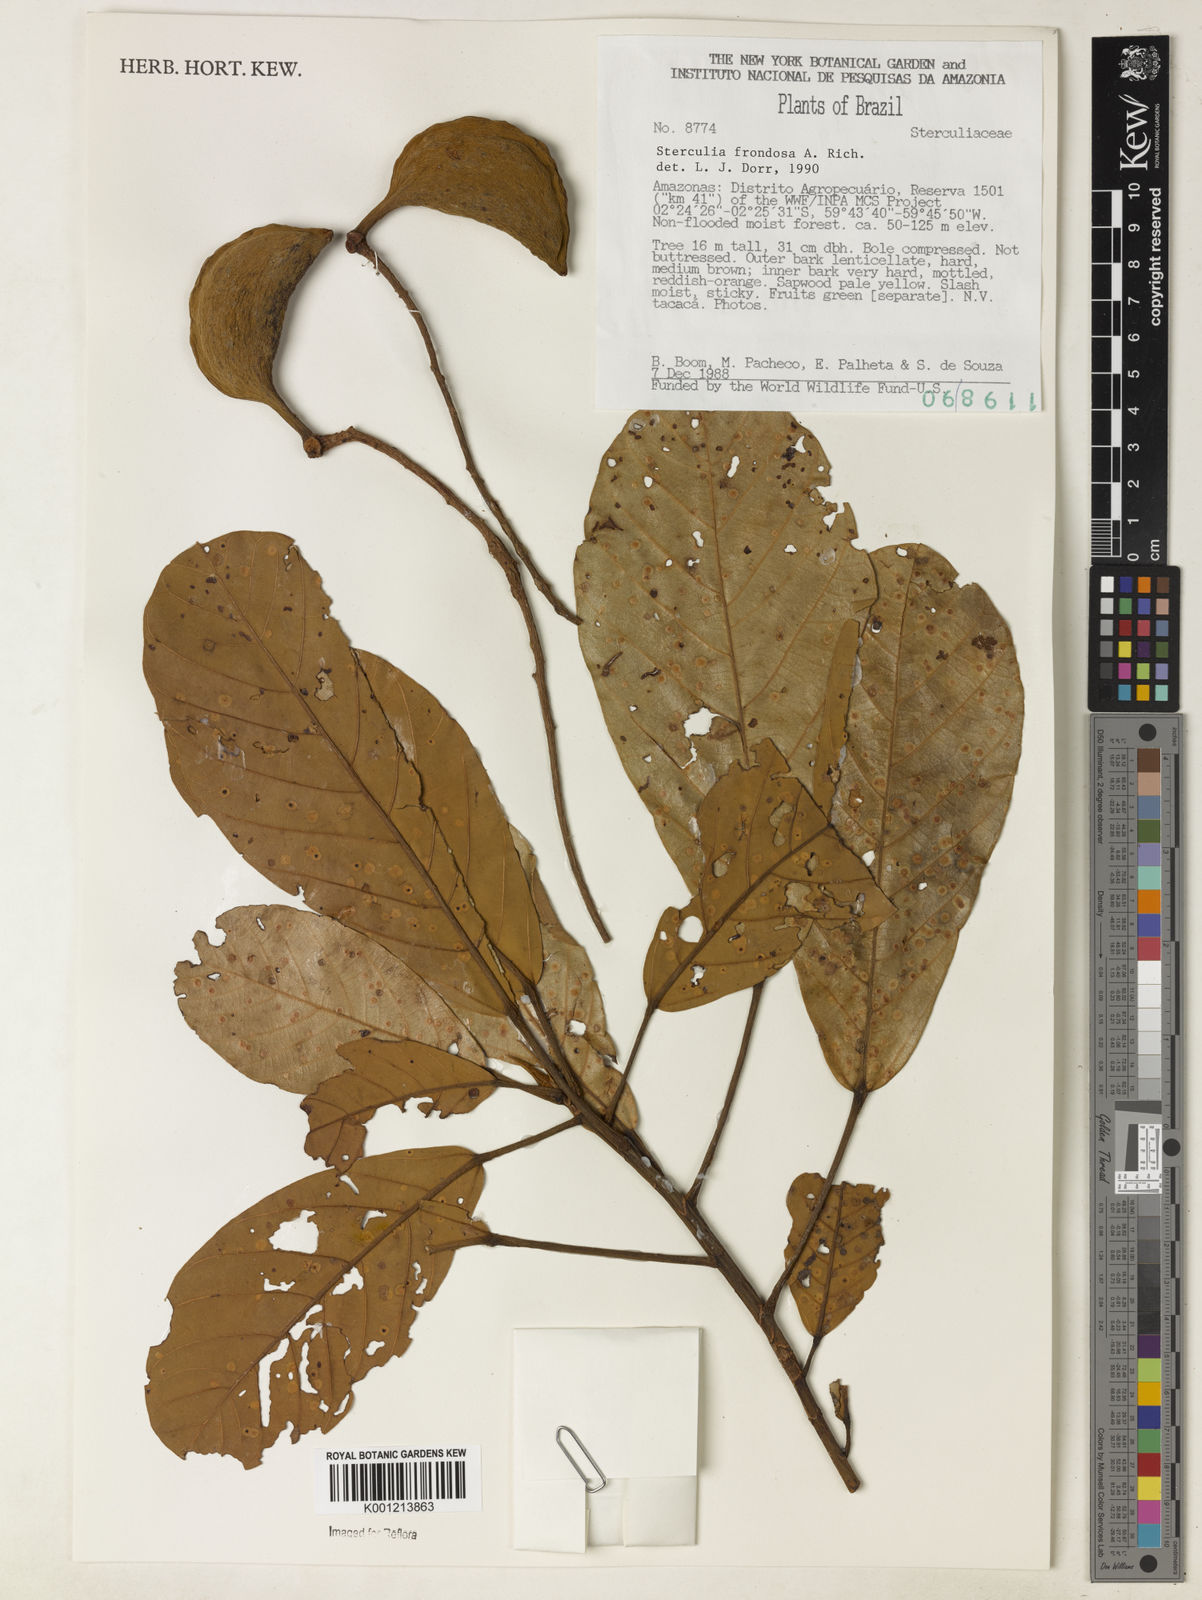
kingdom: Plantae
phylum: Tracheophyta
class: Magnoliopsida
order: Malvales
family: Malvaceae
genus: Sterculia
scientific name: Sterculia frondosa
